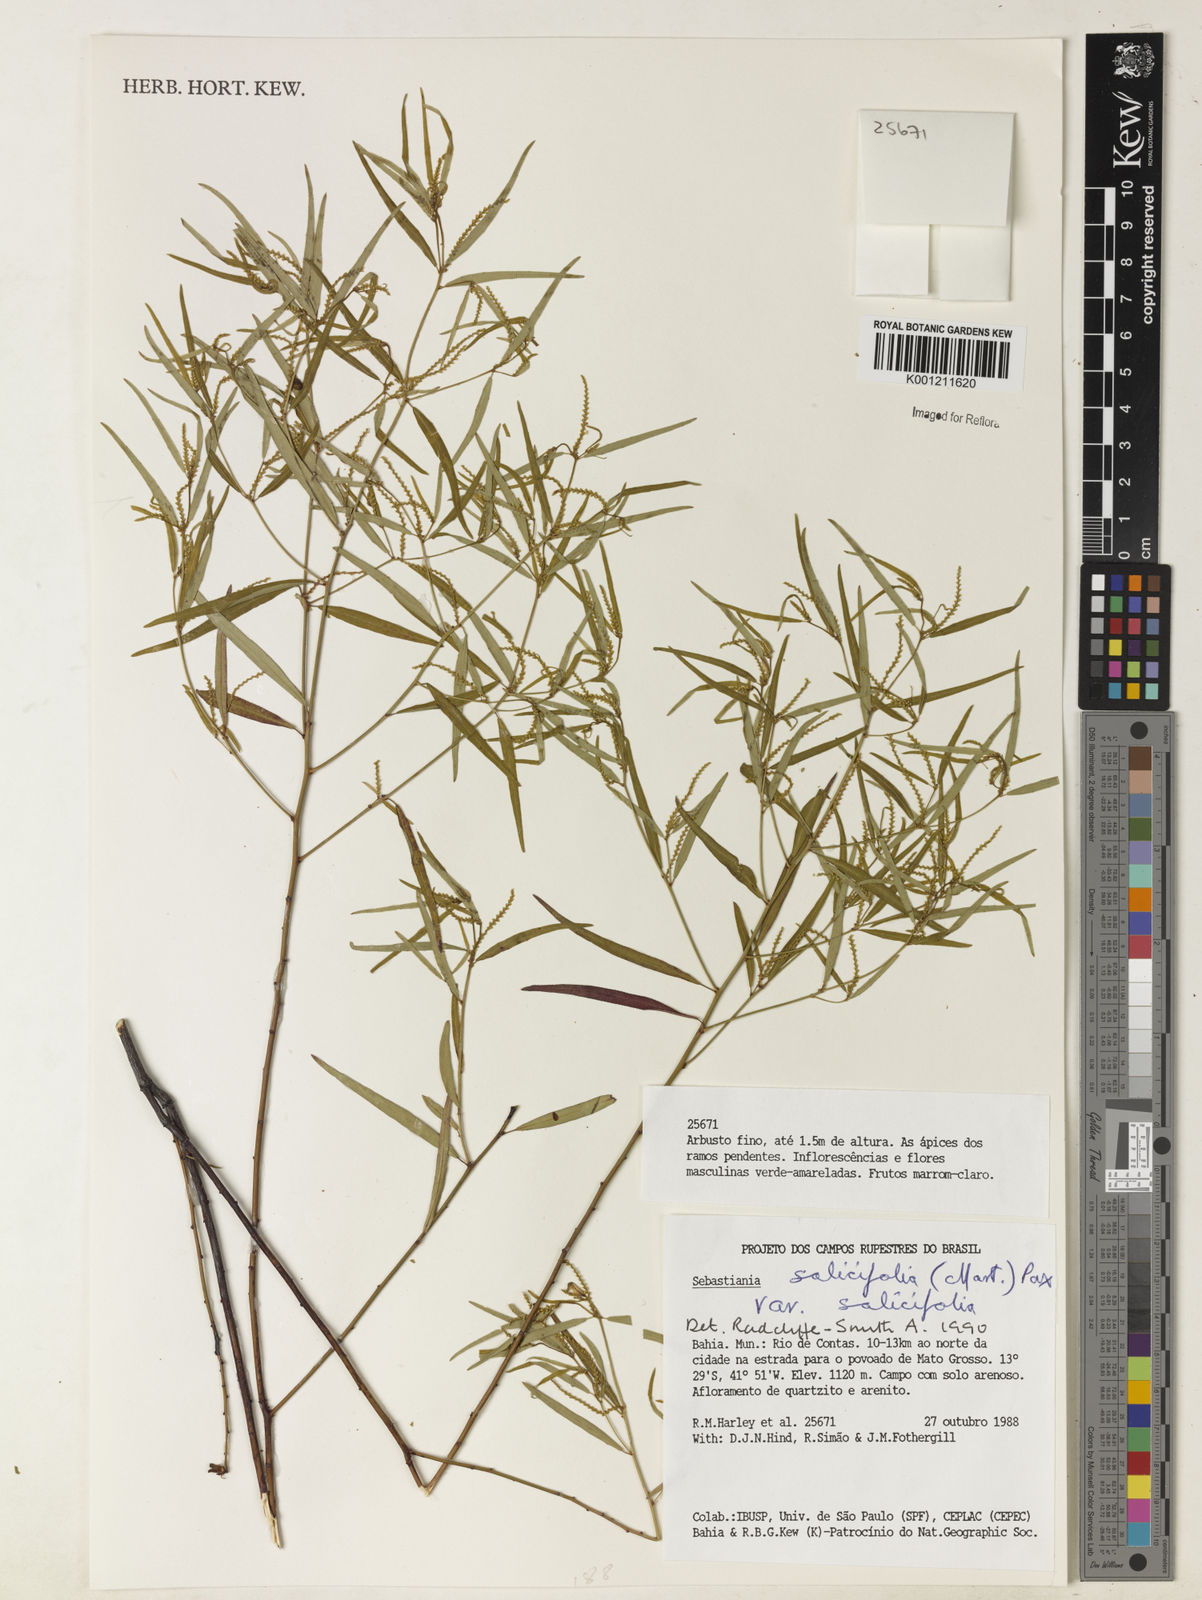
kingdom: Plantae
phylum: Tracheophyta
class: Magnoliopsida
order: Malpighiales
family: Euphorbiaceae
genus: Microstachys
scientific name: Microstachys
